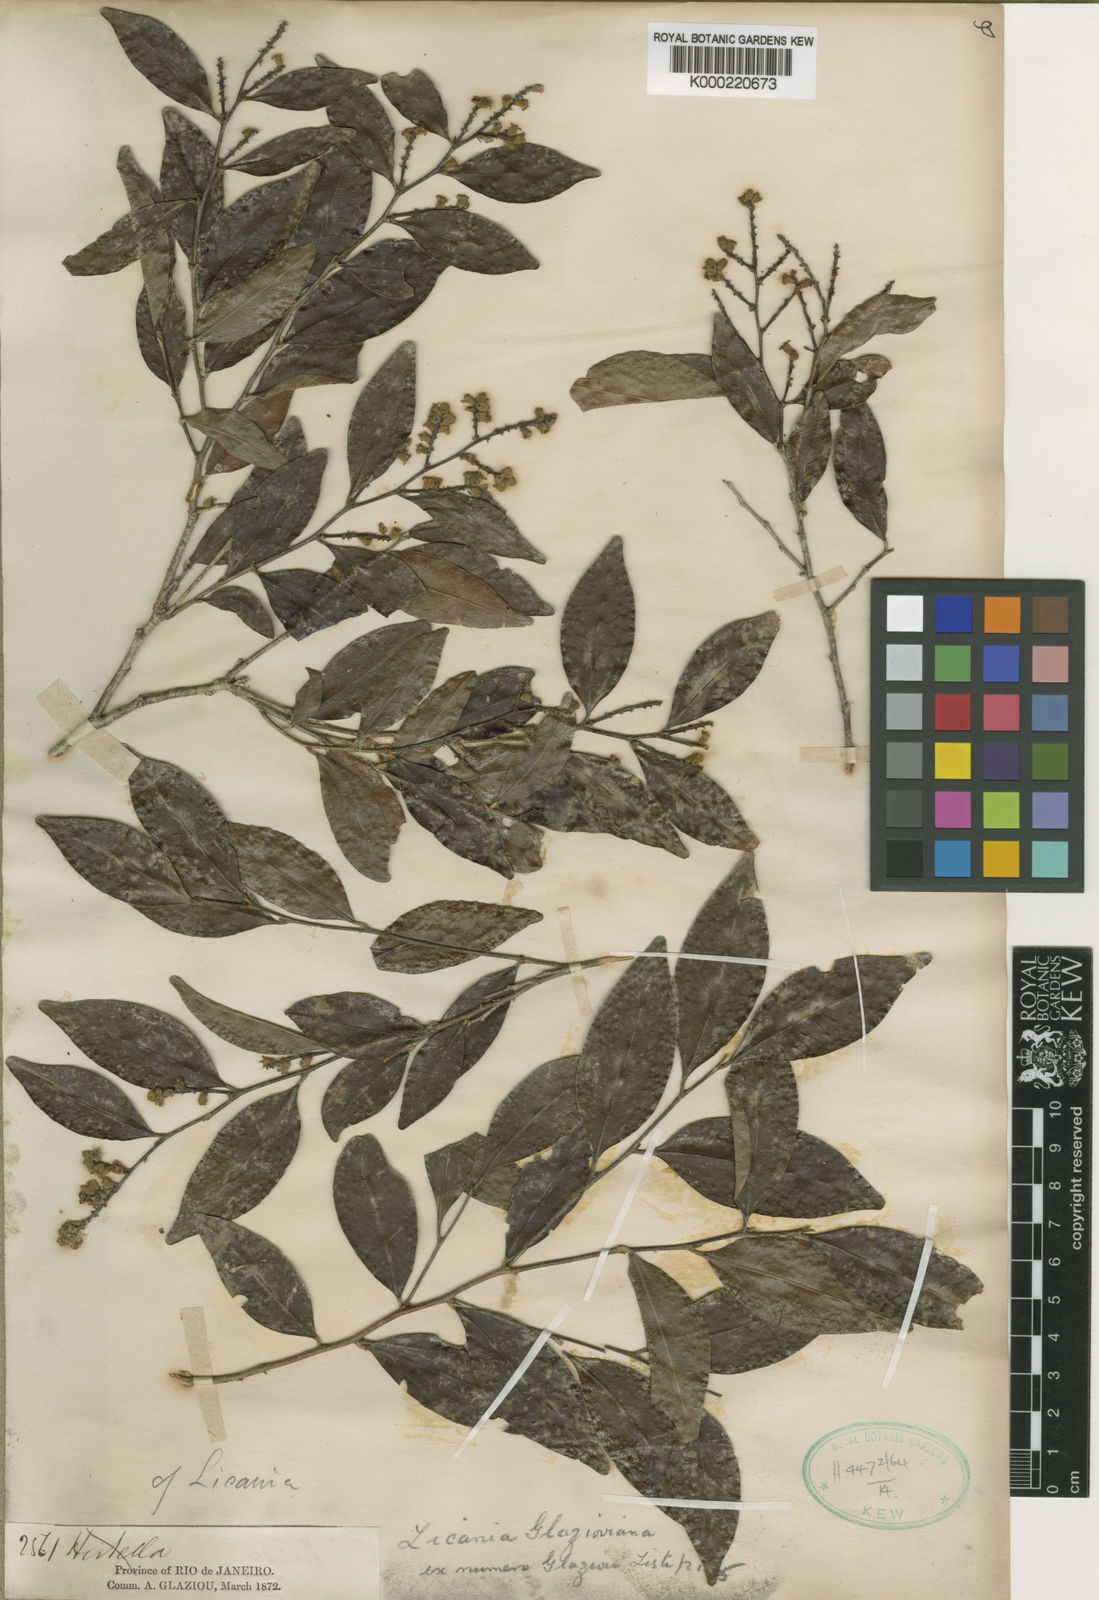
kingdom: Plantae
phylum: Tracheophyta
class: Magnoliopsida
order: Malpighiales
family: Chrysobalanaceae
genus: Licania
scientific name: Licania glazioviana
